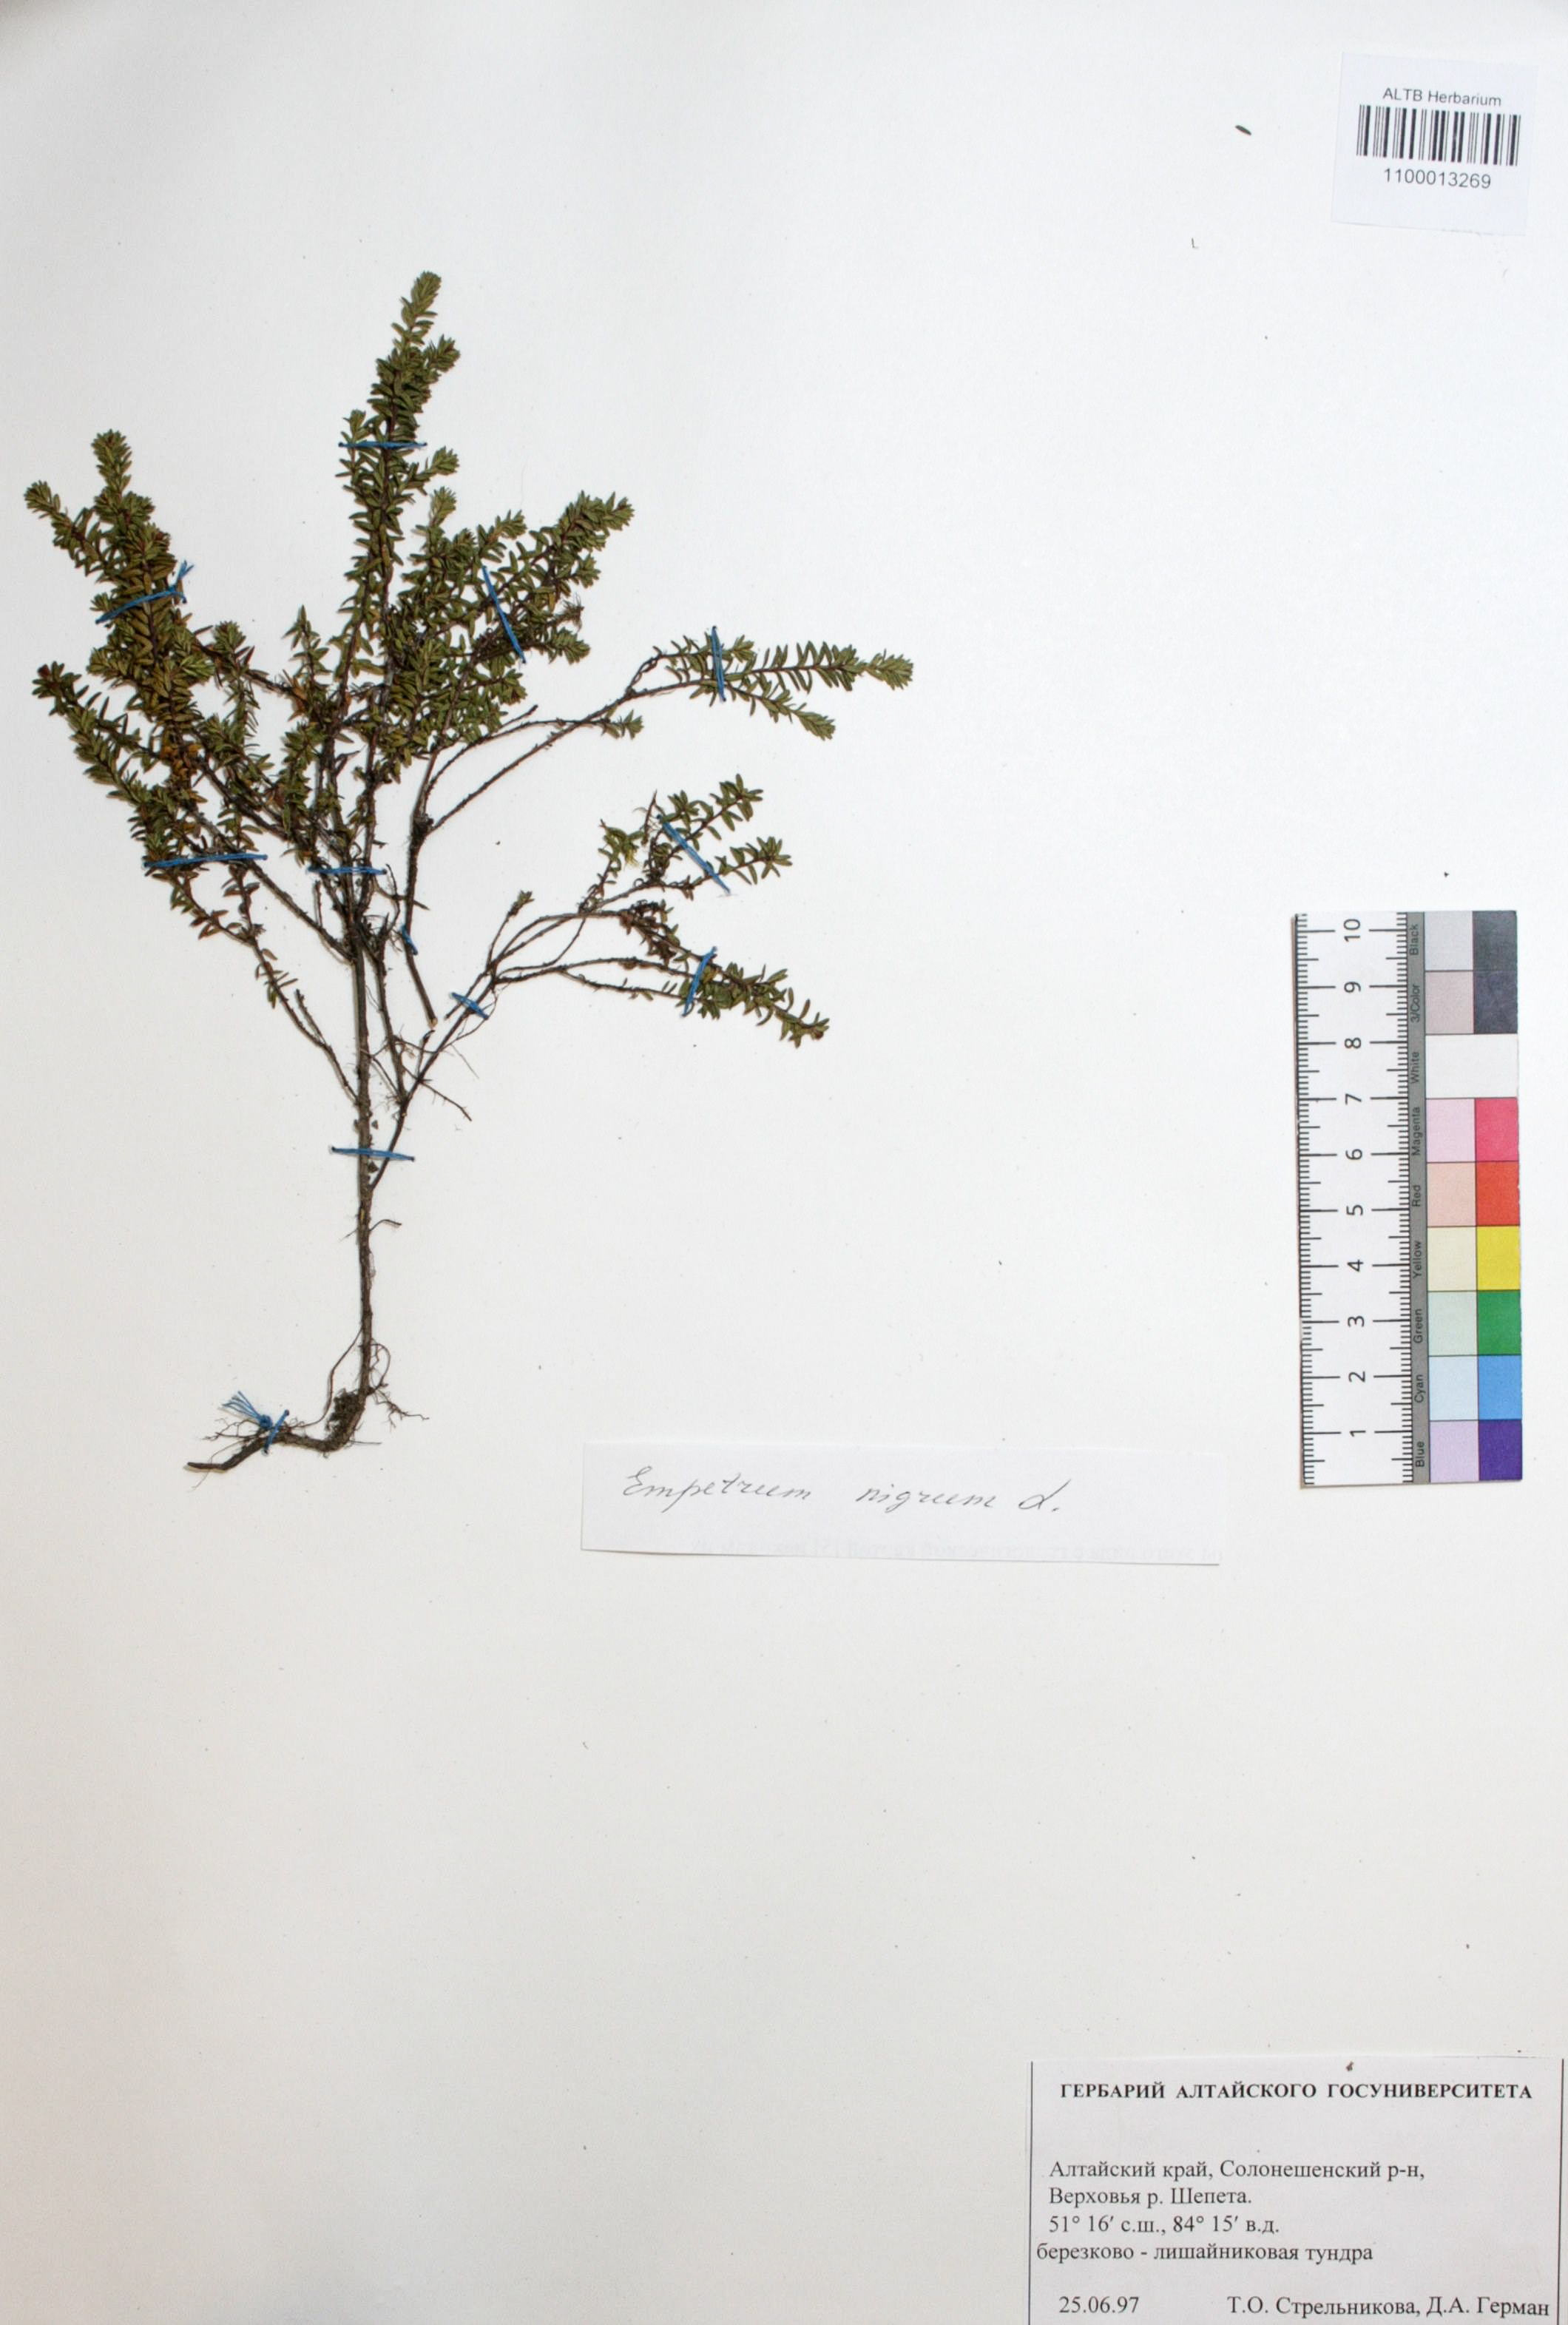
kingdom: Plantae
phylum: Tracheophyta
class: Magnoliopsida
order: Ericales
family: Ericaceae
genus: Empetrum
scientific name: Empetrum nigrum
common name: Black crowberry
